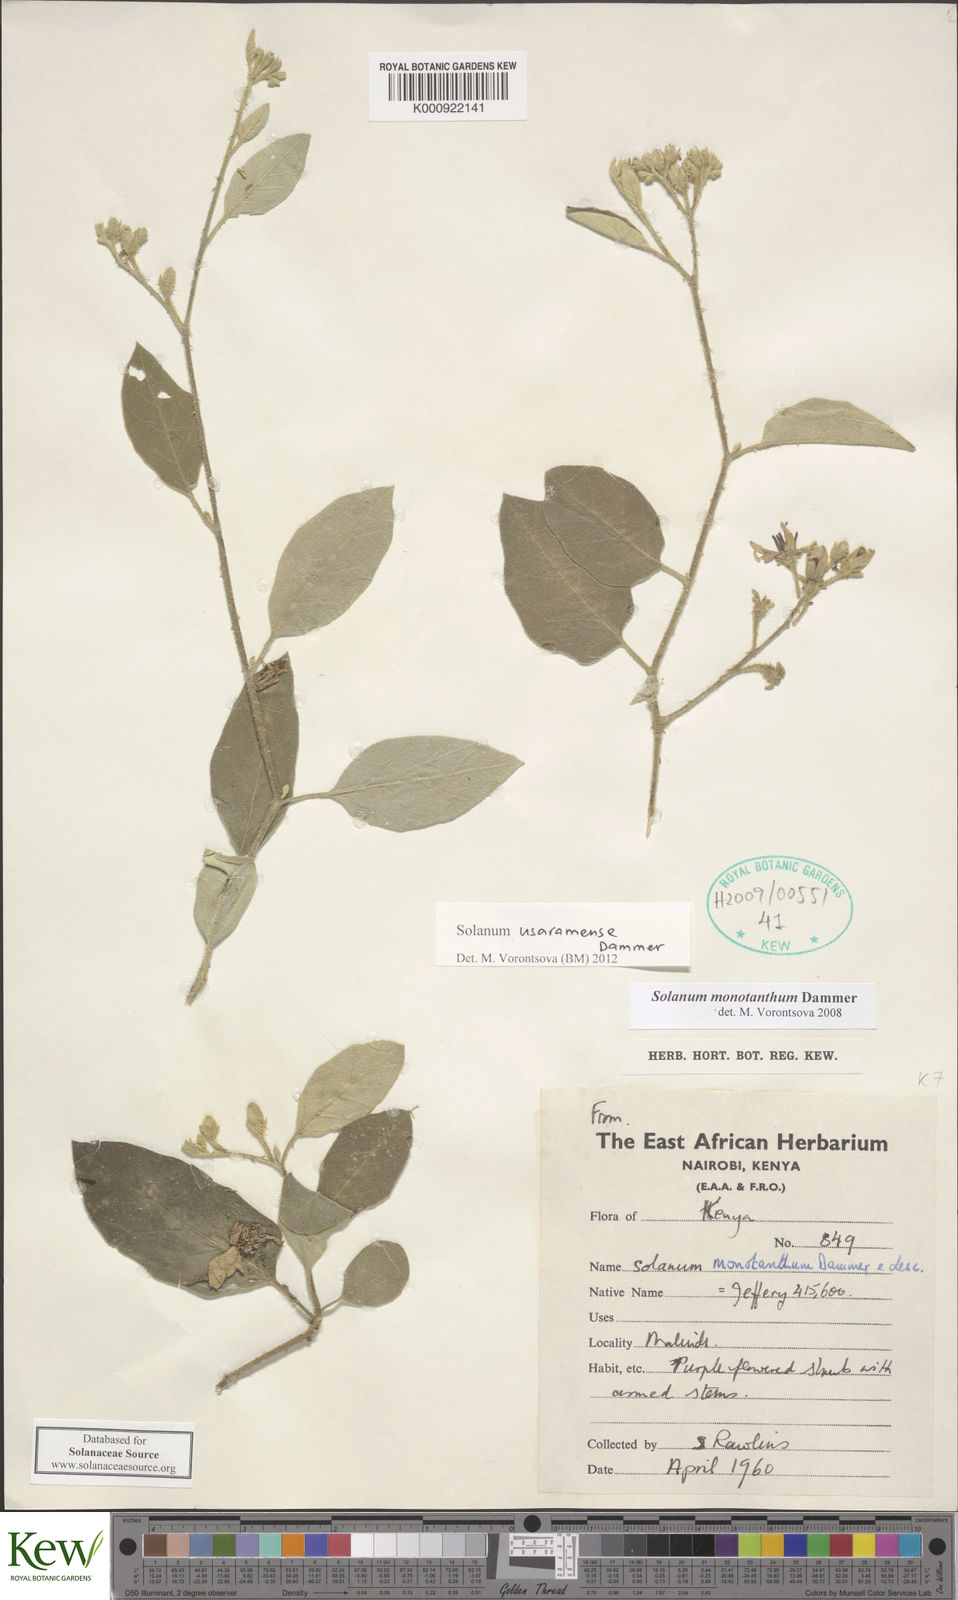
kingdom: Plantae
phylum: Tracheophyta
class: Magnoliopsida
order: Solanales
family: Solanaceae
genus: Solanum
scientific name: Solanum usaramense
